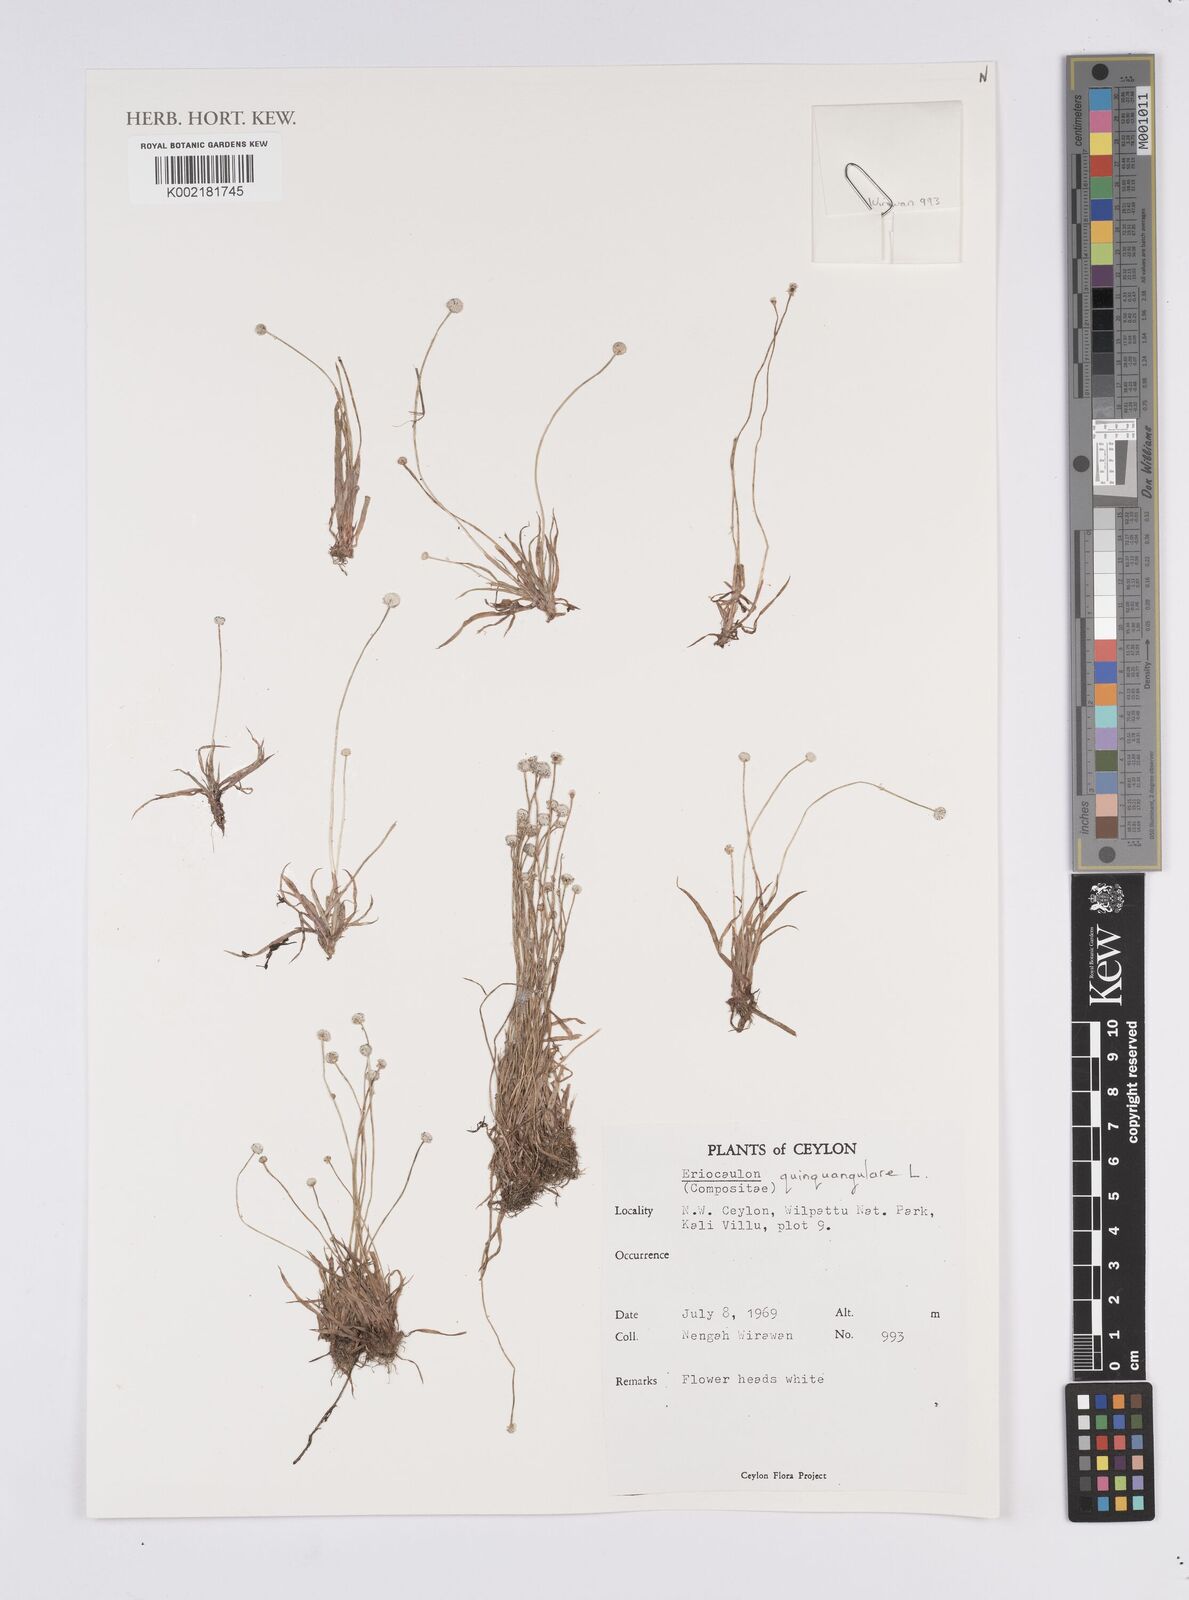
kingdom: Plantae
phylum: Tracheophyta
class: Liliopsida
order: Poales
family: Eriocaulaceae
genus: Eriocaulon
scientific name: Eriocaulon quinquangulare
